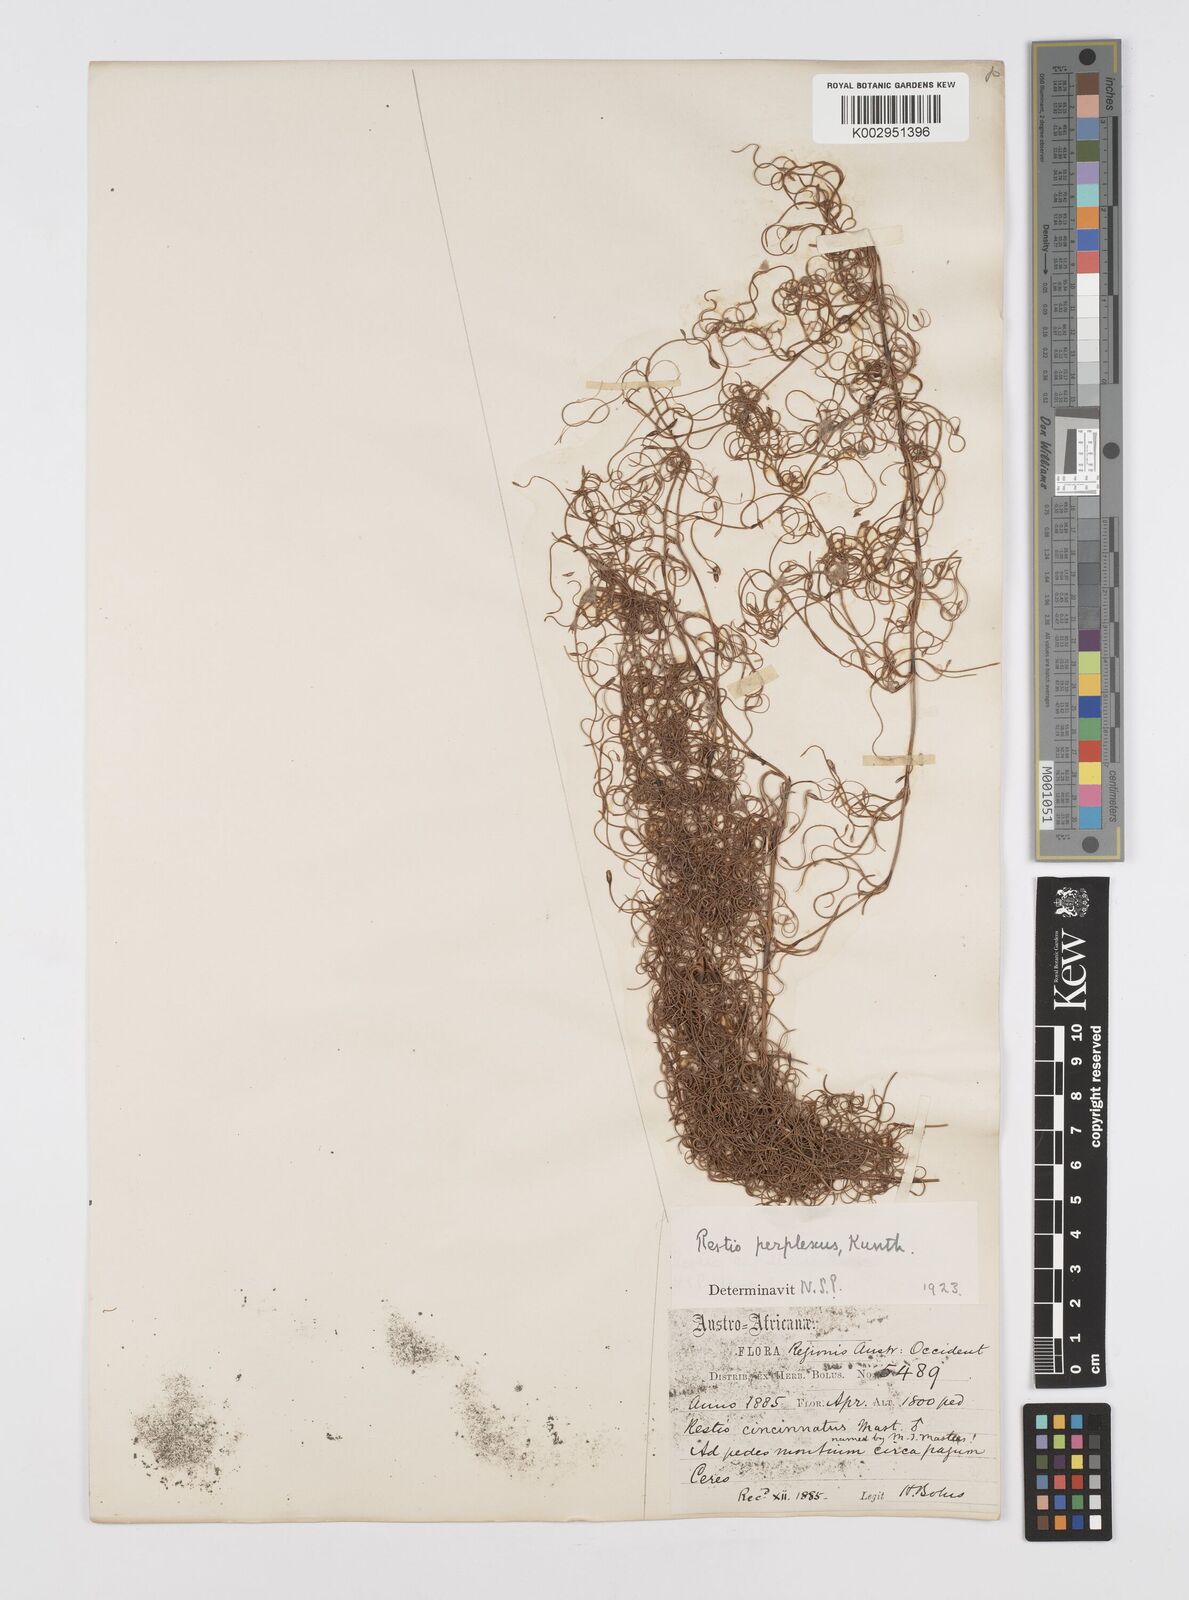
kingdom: Plantae
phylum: Tracheophyta
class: Liliopsida
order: Poales
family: Restionaceae
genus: Restio
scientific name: Restio perplexus
